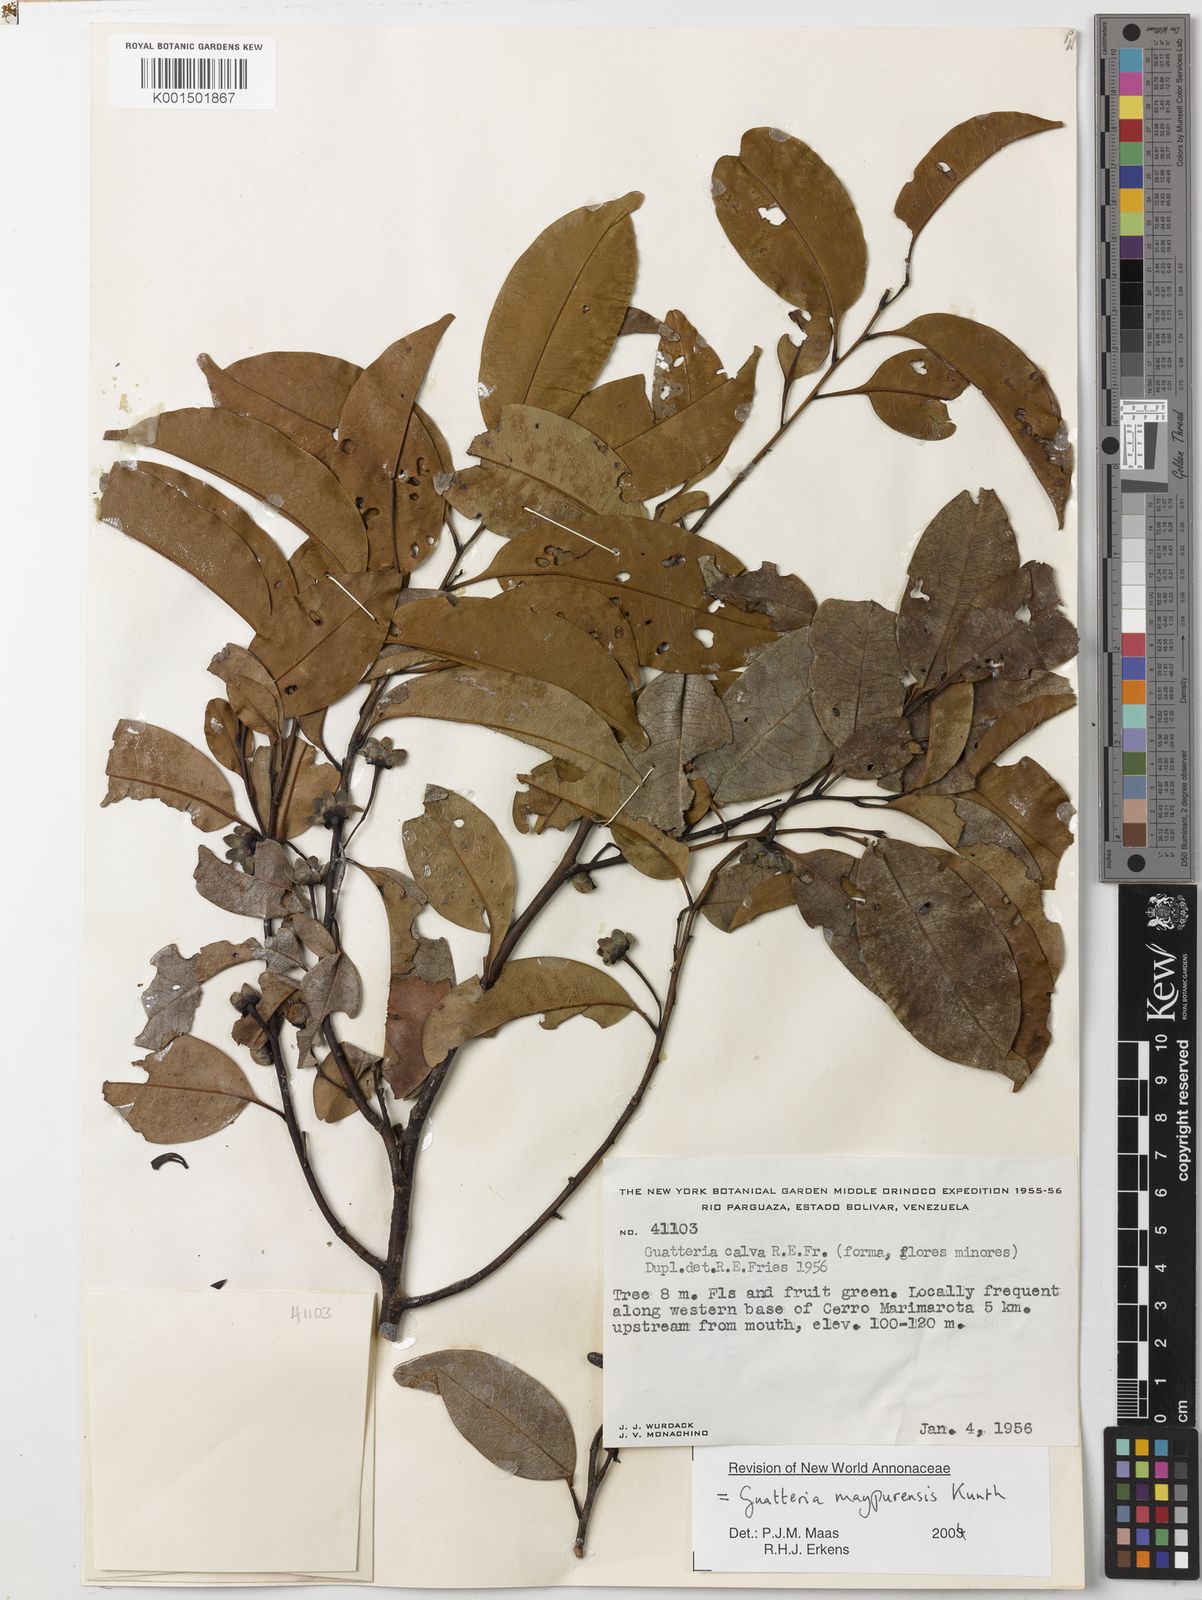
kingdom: Plantae
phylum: Tracheophyta
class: Magnoliopsida
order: Magnoliales
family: Annonaceae
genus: Guatteria
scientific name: Guatteria maypurensis
